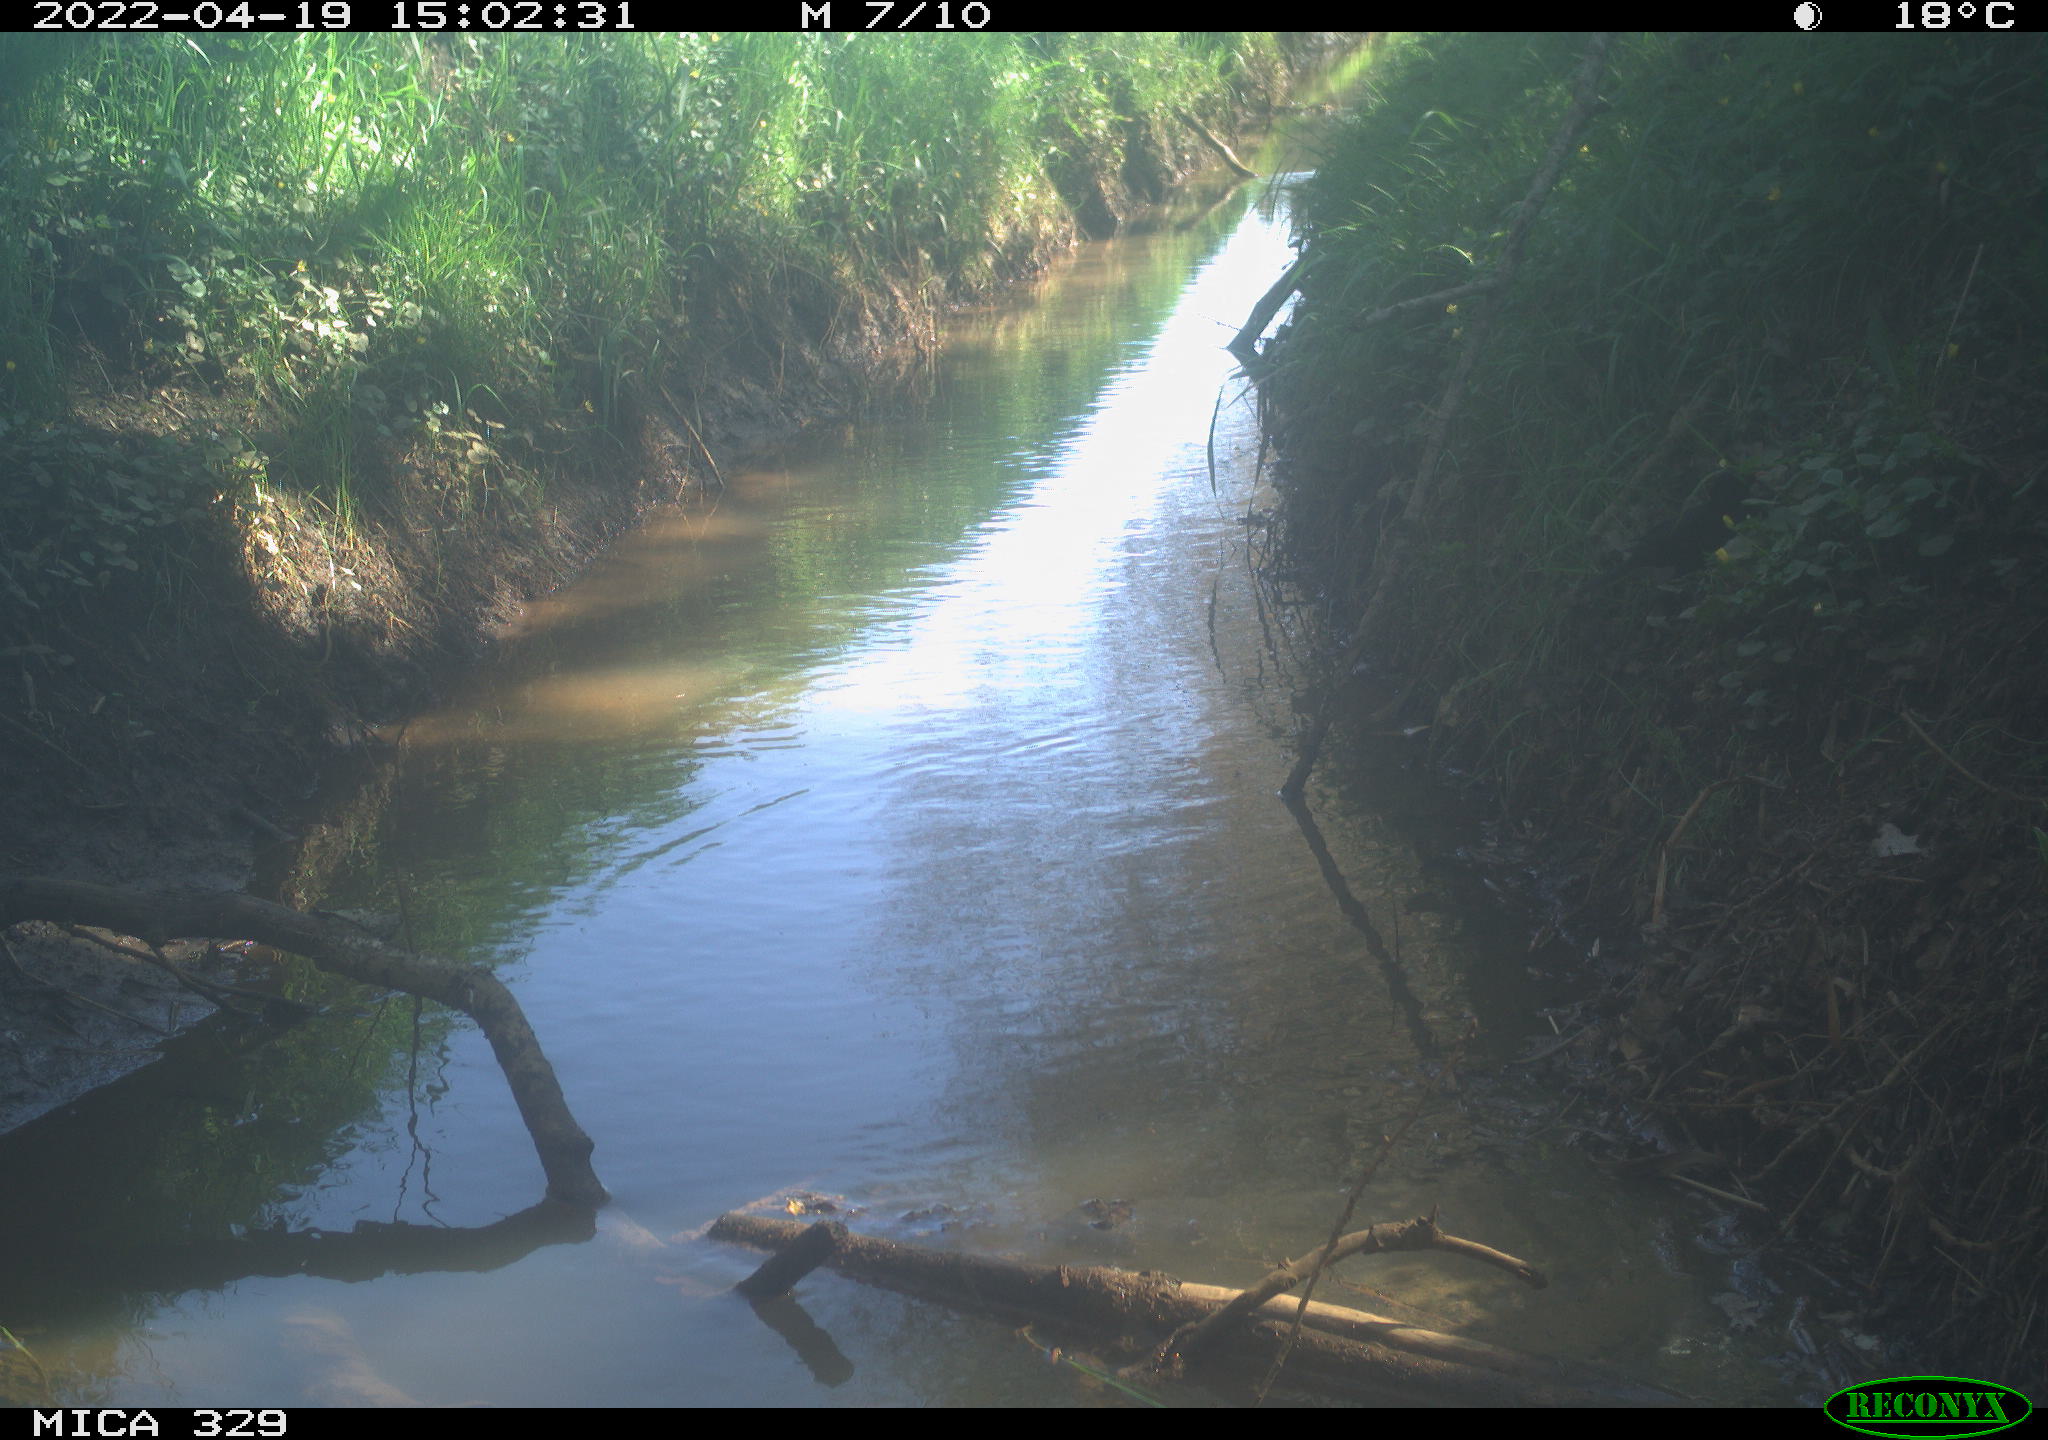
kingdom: Animalia
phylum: Chordata
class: Aves
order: Passeriformes
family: Turdidae
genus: Turdus
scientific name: Turdus merula
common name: Common blackbird
